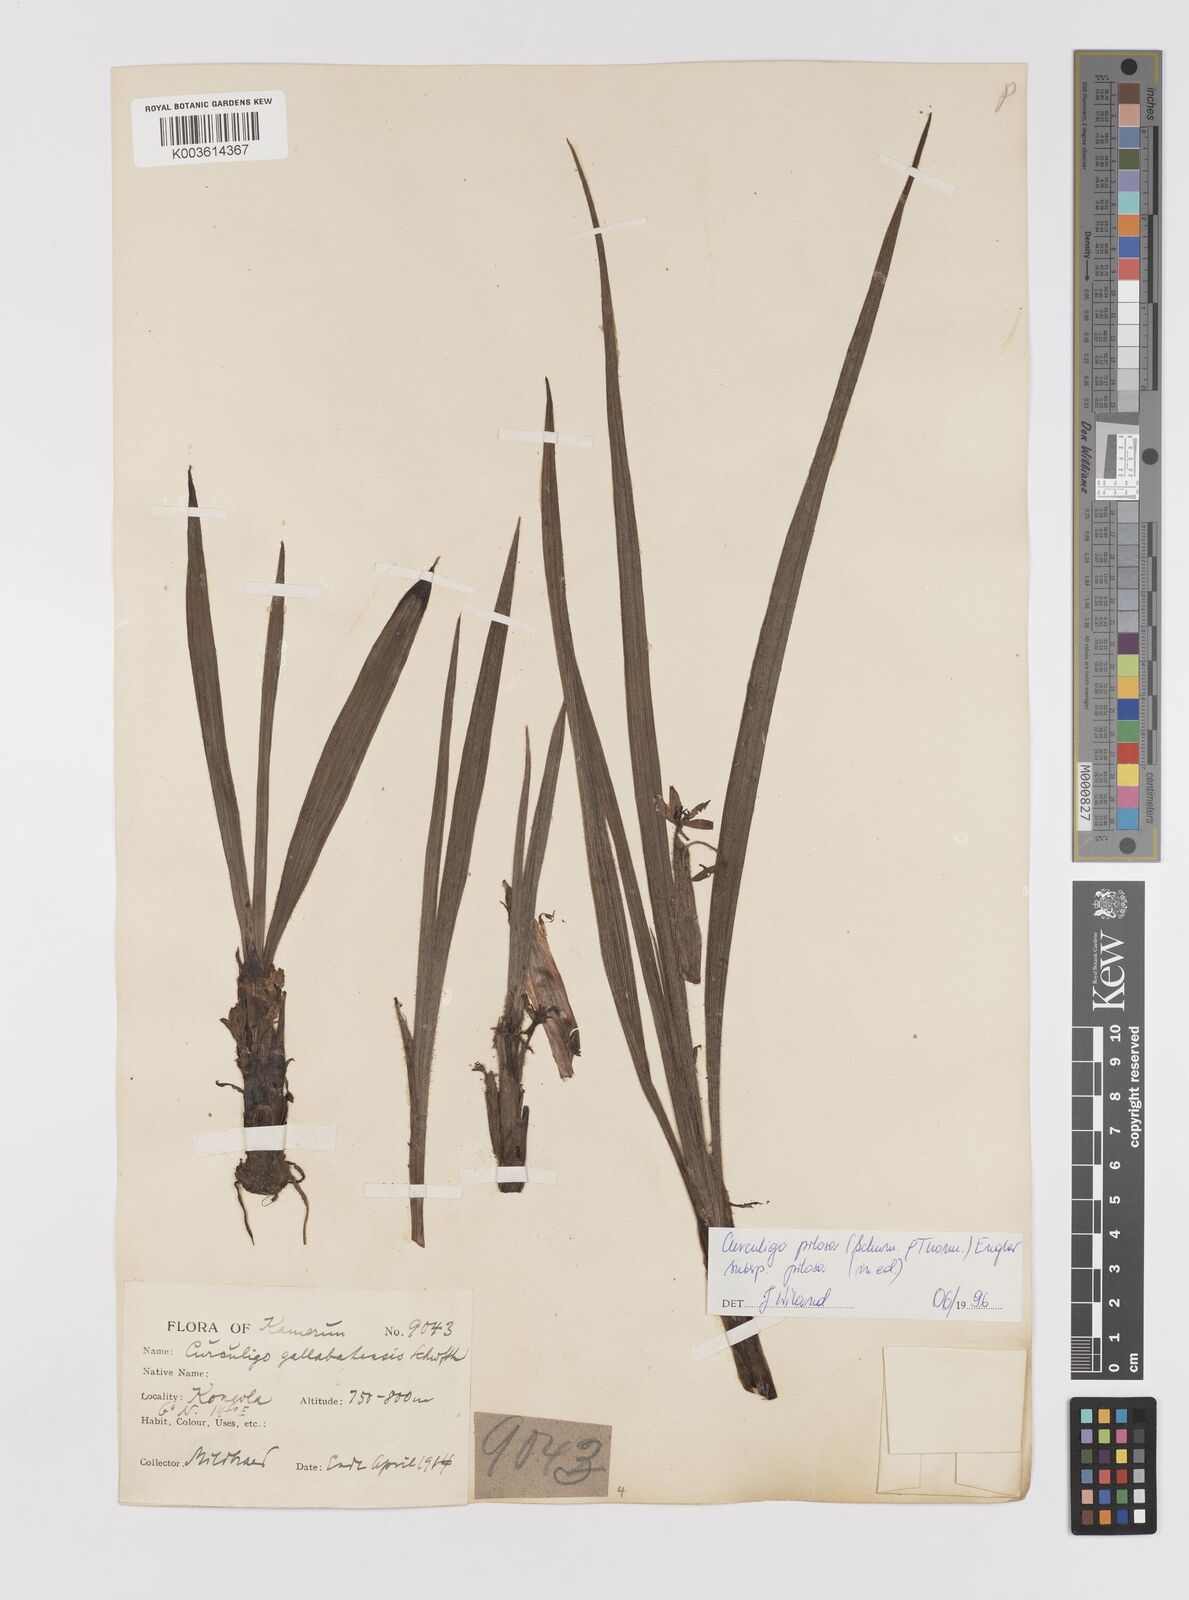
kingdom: Plantae
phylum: Tracheophyta
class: Liliopsida
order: Asparagales
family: Hypoxidaceae
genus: Curculigo
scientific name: Curculigo pilosa
